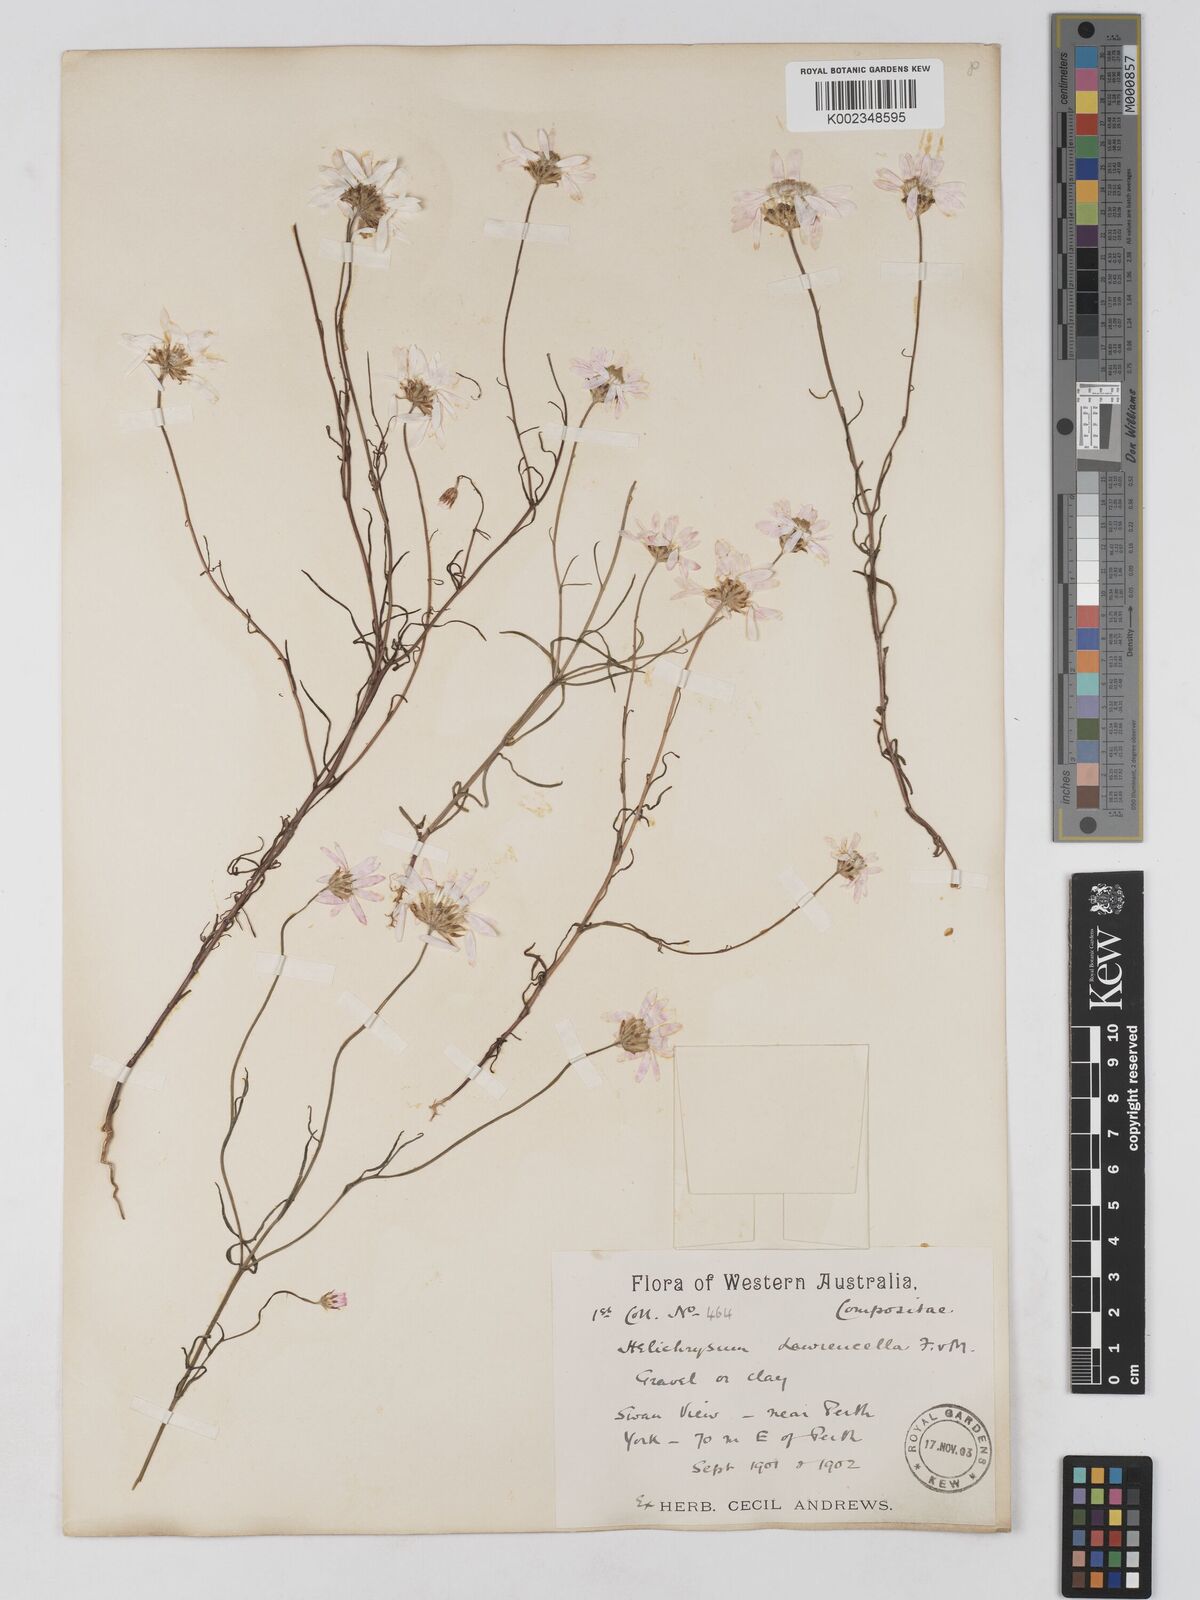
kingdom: Plantae
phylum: Tracheophyta
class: Magnoliopsida
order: Asterales
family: Asteraceae
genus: Lawrencella
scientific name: Lawrencella rosea
